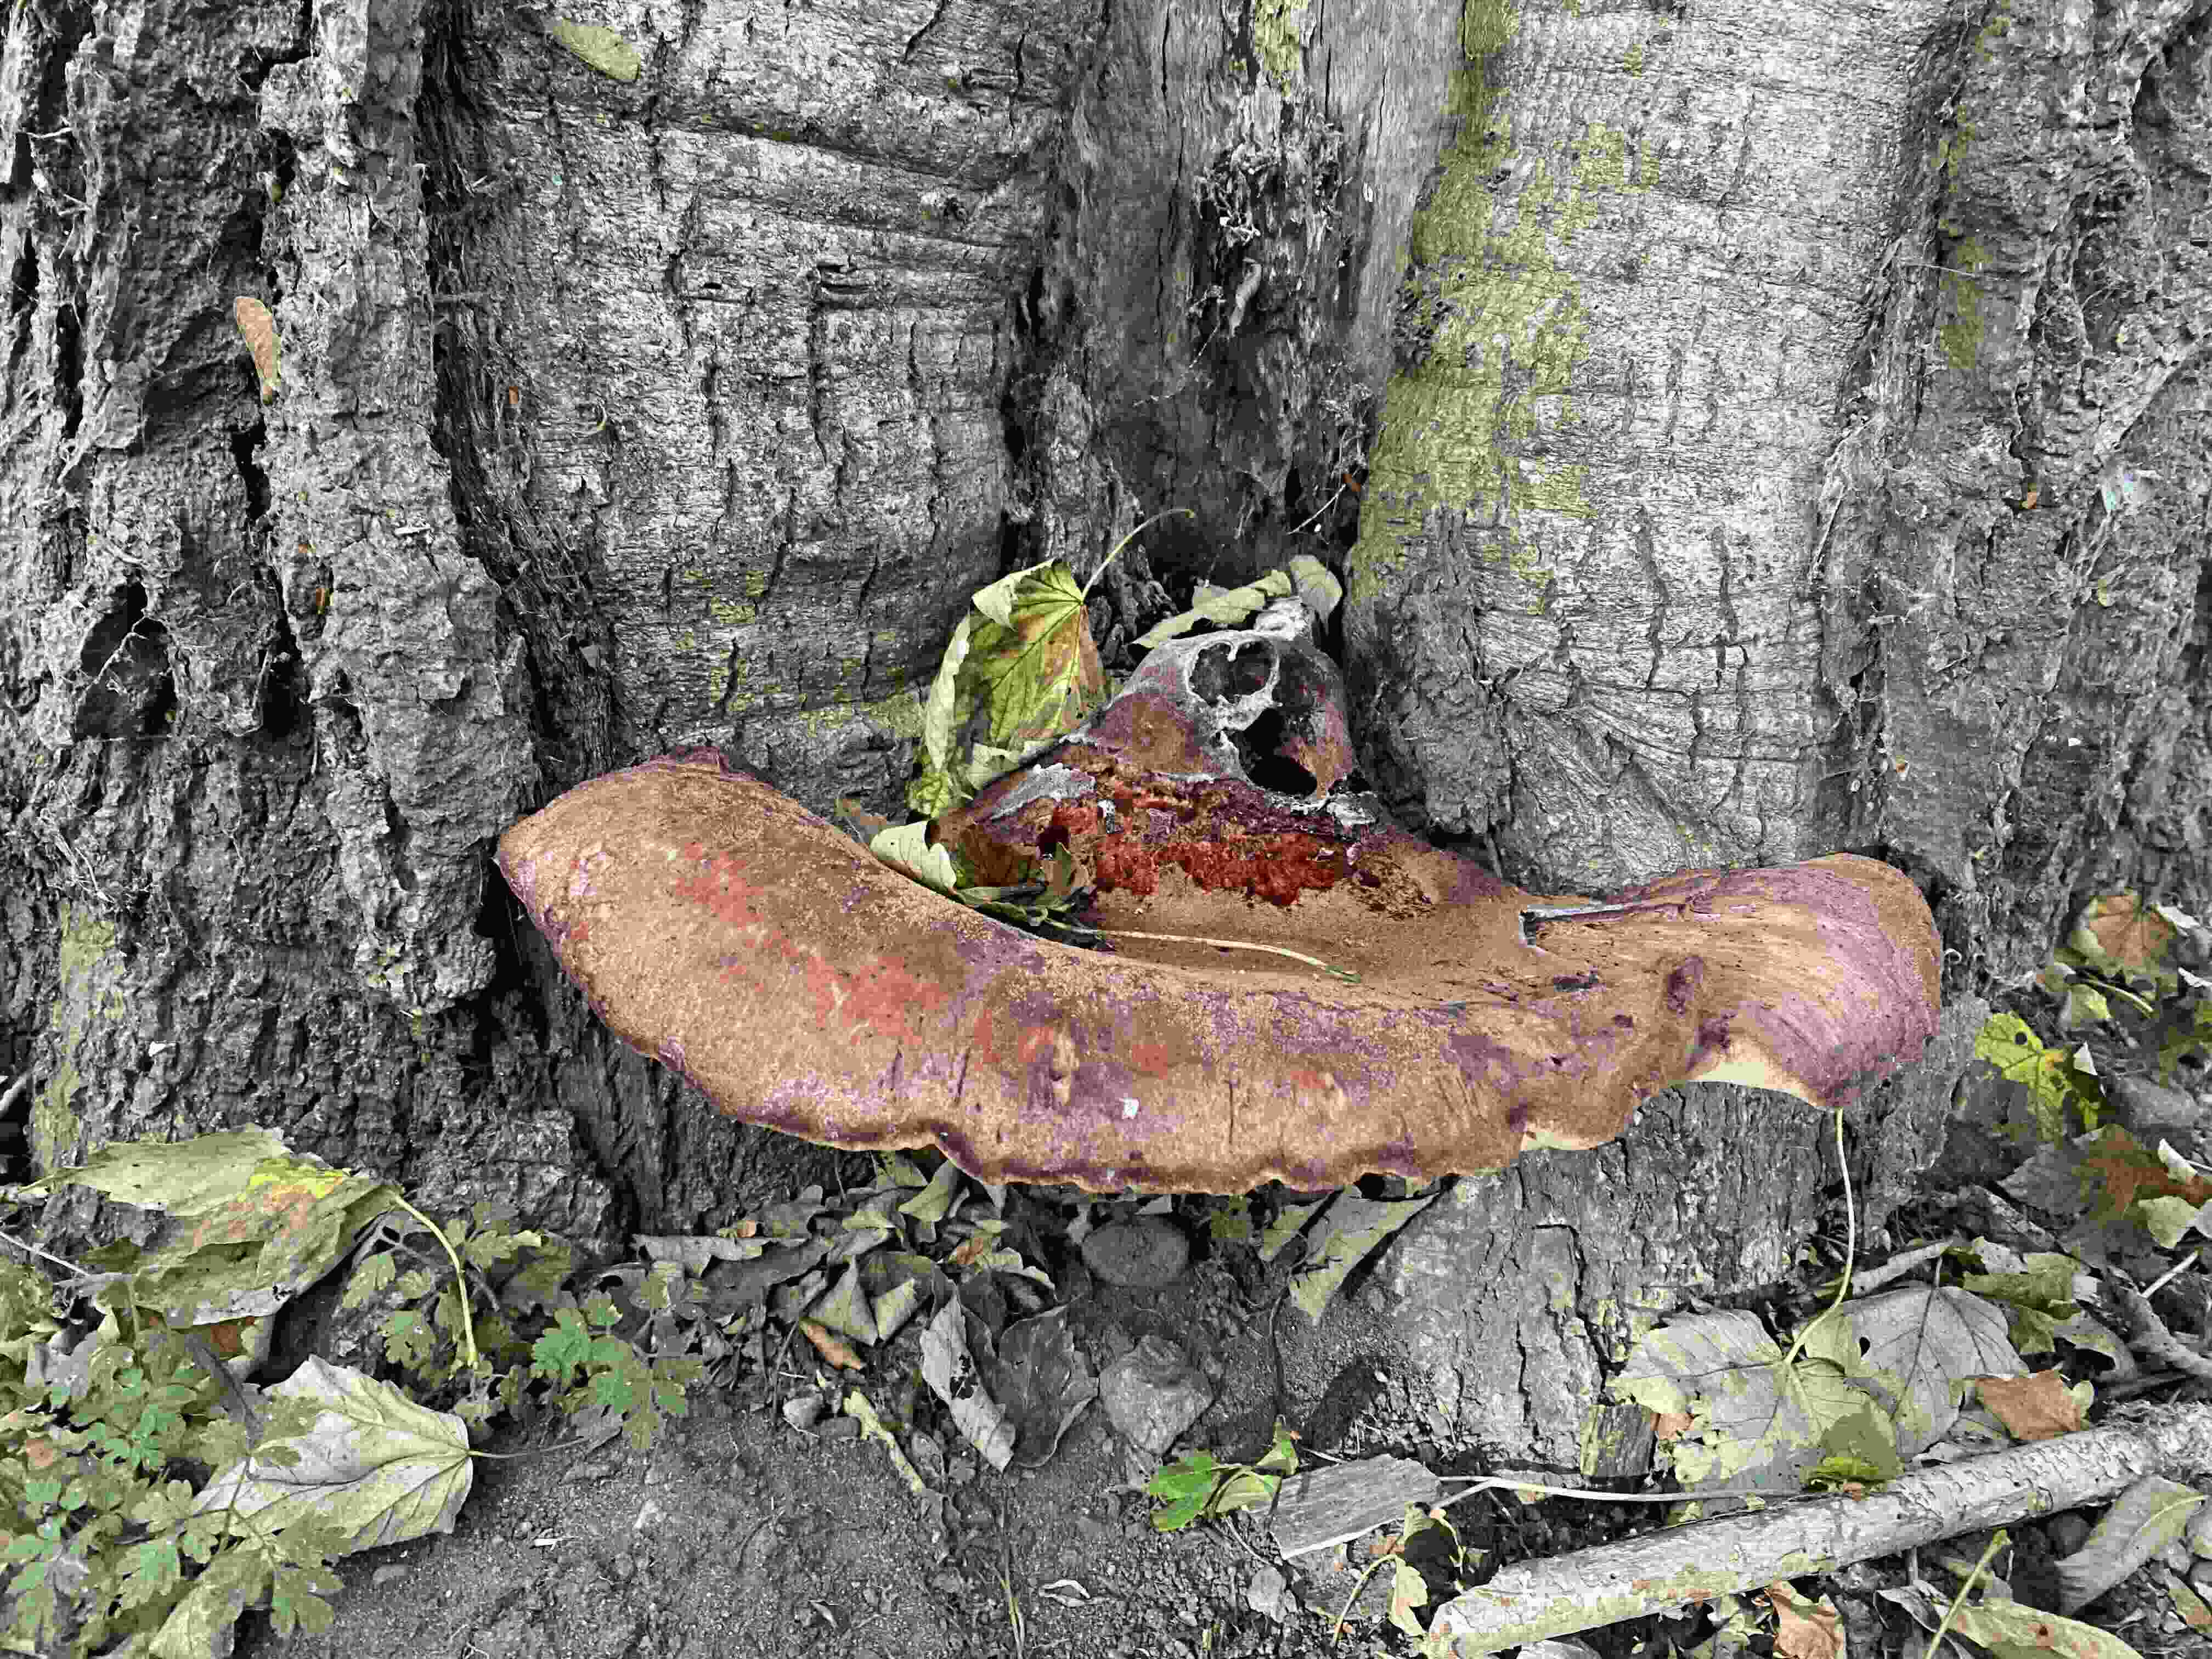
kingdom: Fungi
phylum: Basidiomycota
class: Agaricomycetes
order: Agaricales
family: Fistulinaceae
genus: Fistulina
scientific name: Fistulina hepatica
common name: oksetunge
